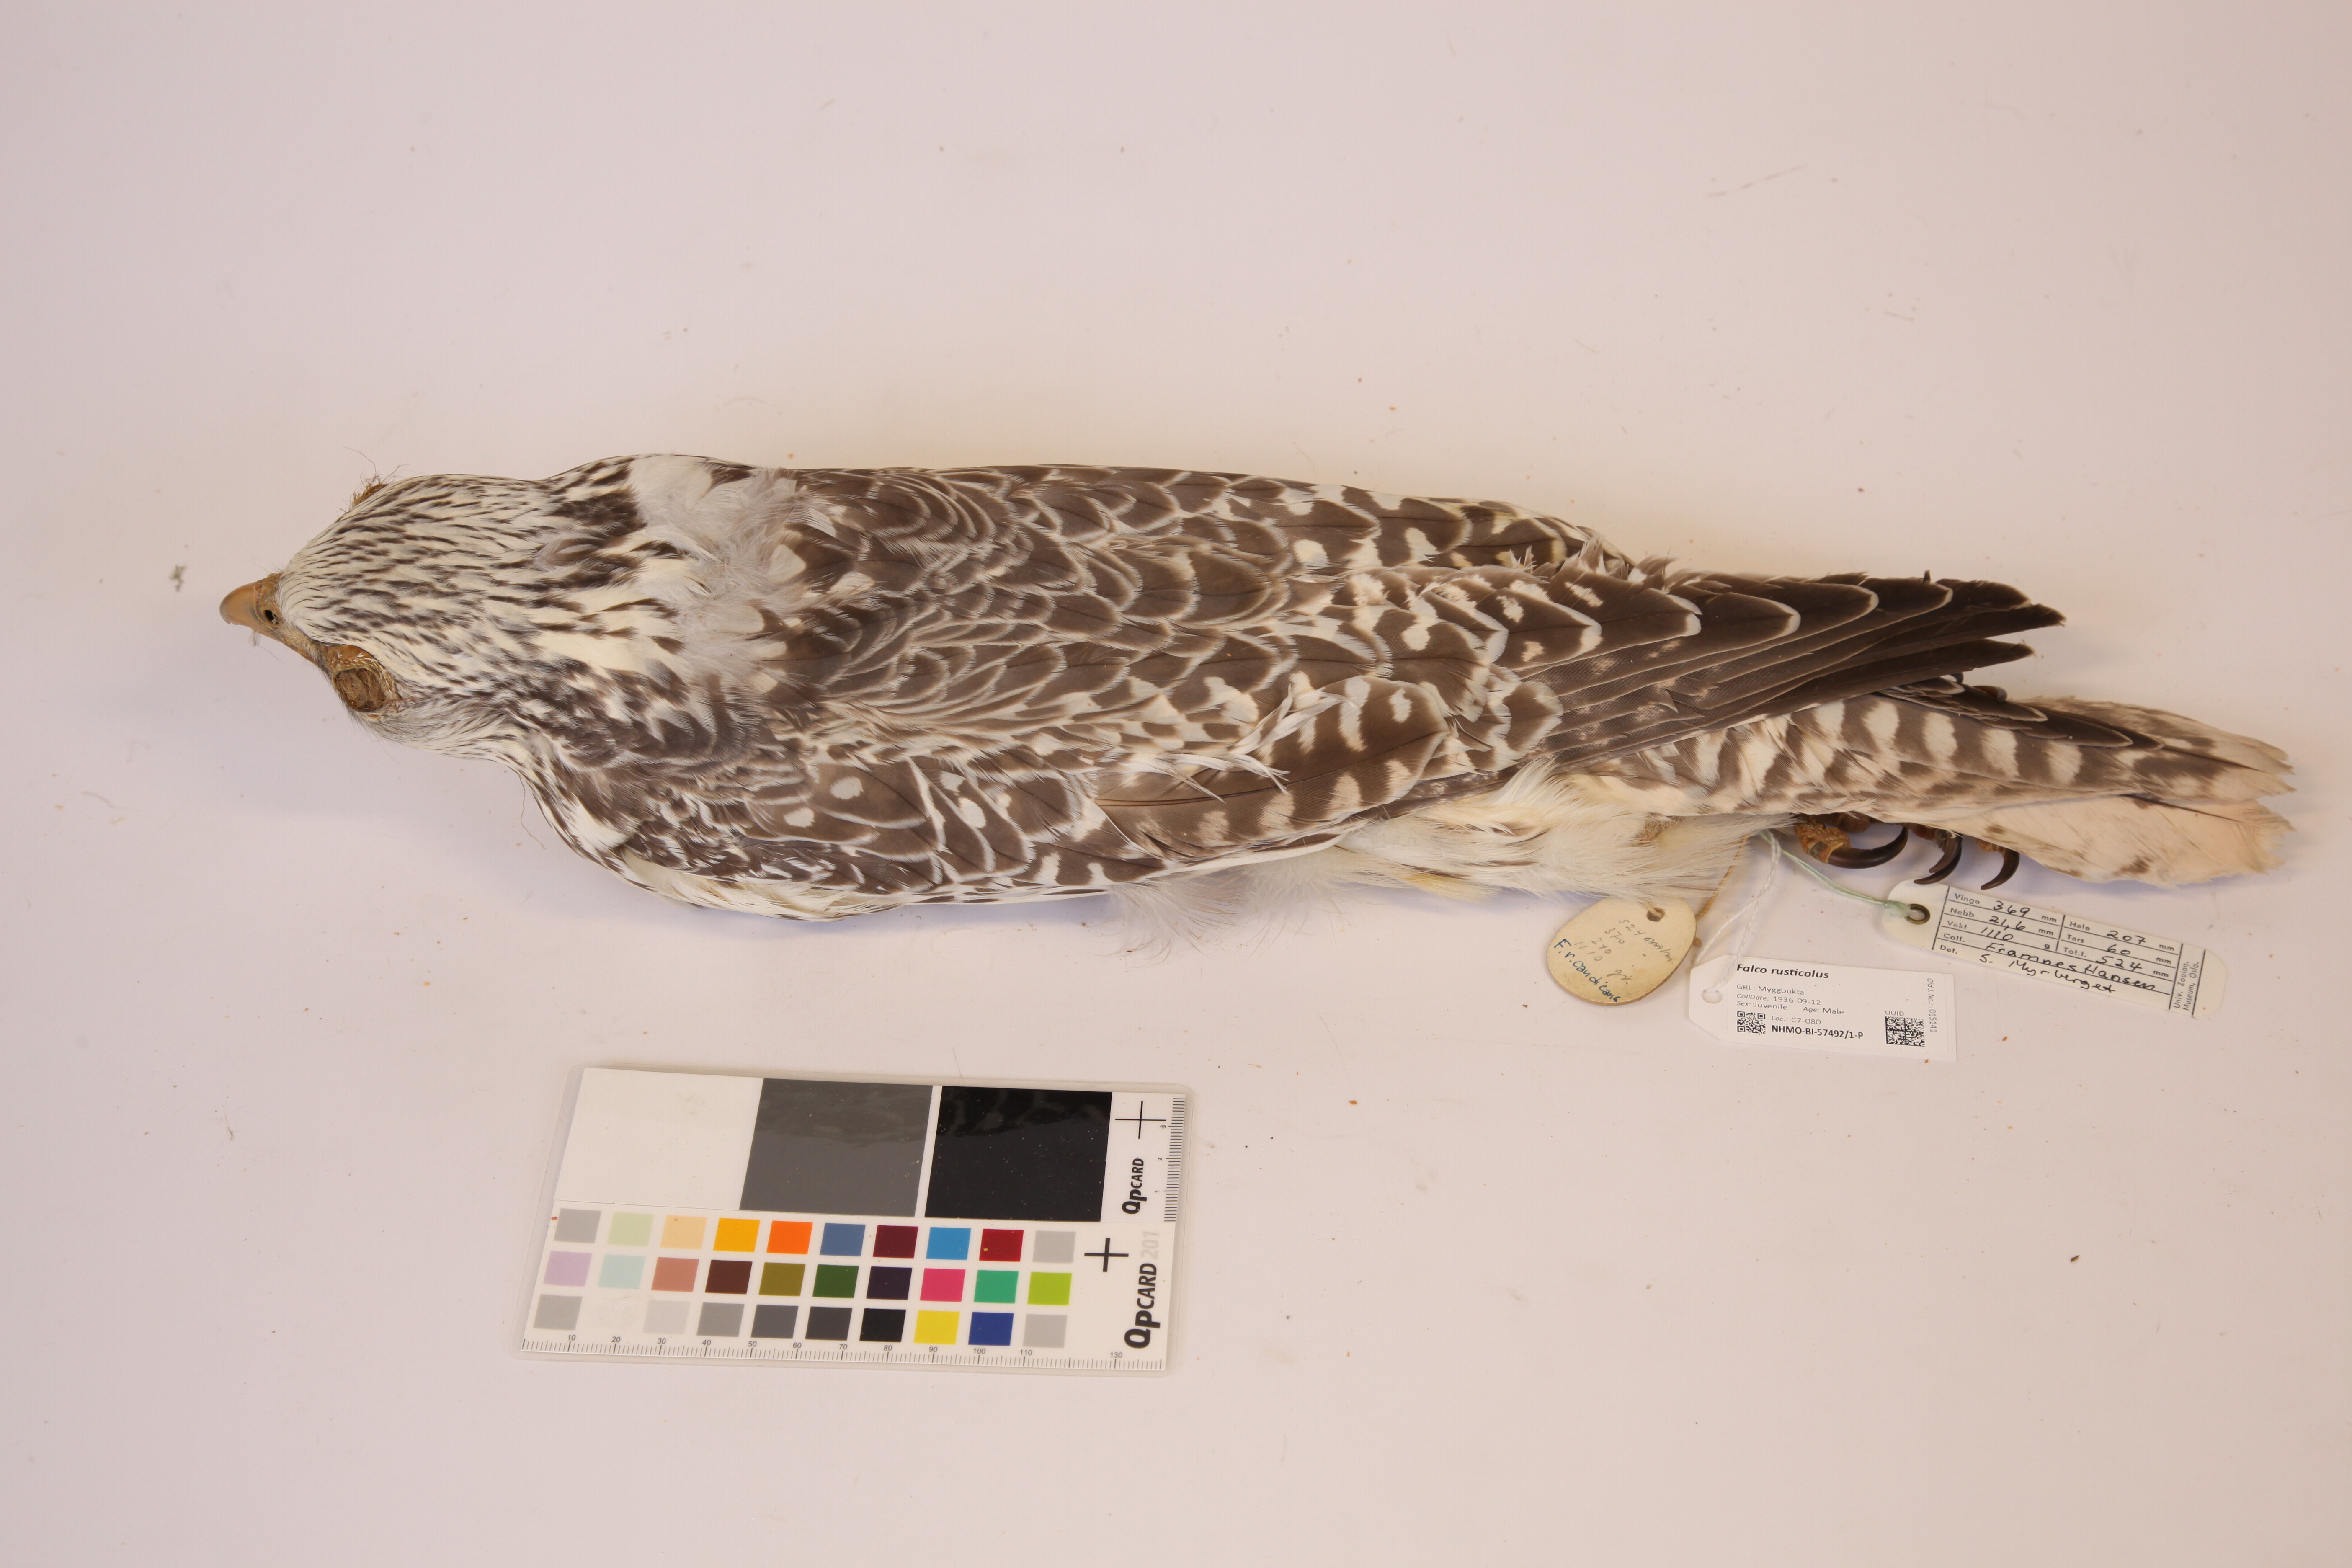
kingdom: Animalia
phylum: Chordata
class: Aves
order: Falconiformes
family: Falconidae
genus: Falco
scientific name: Falco rusticolus
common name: Gyrfalcon
